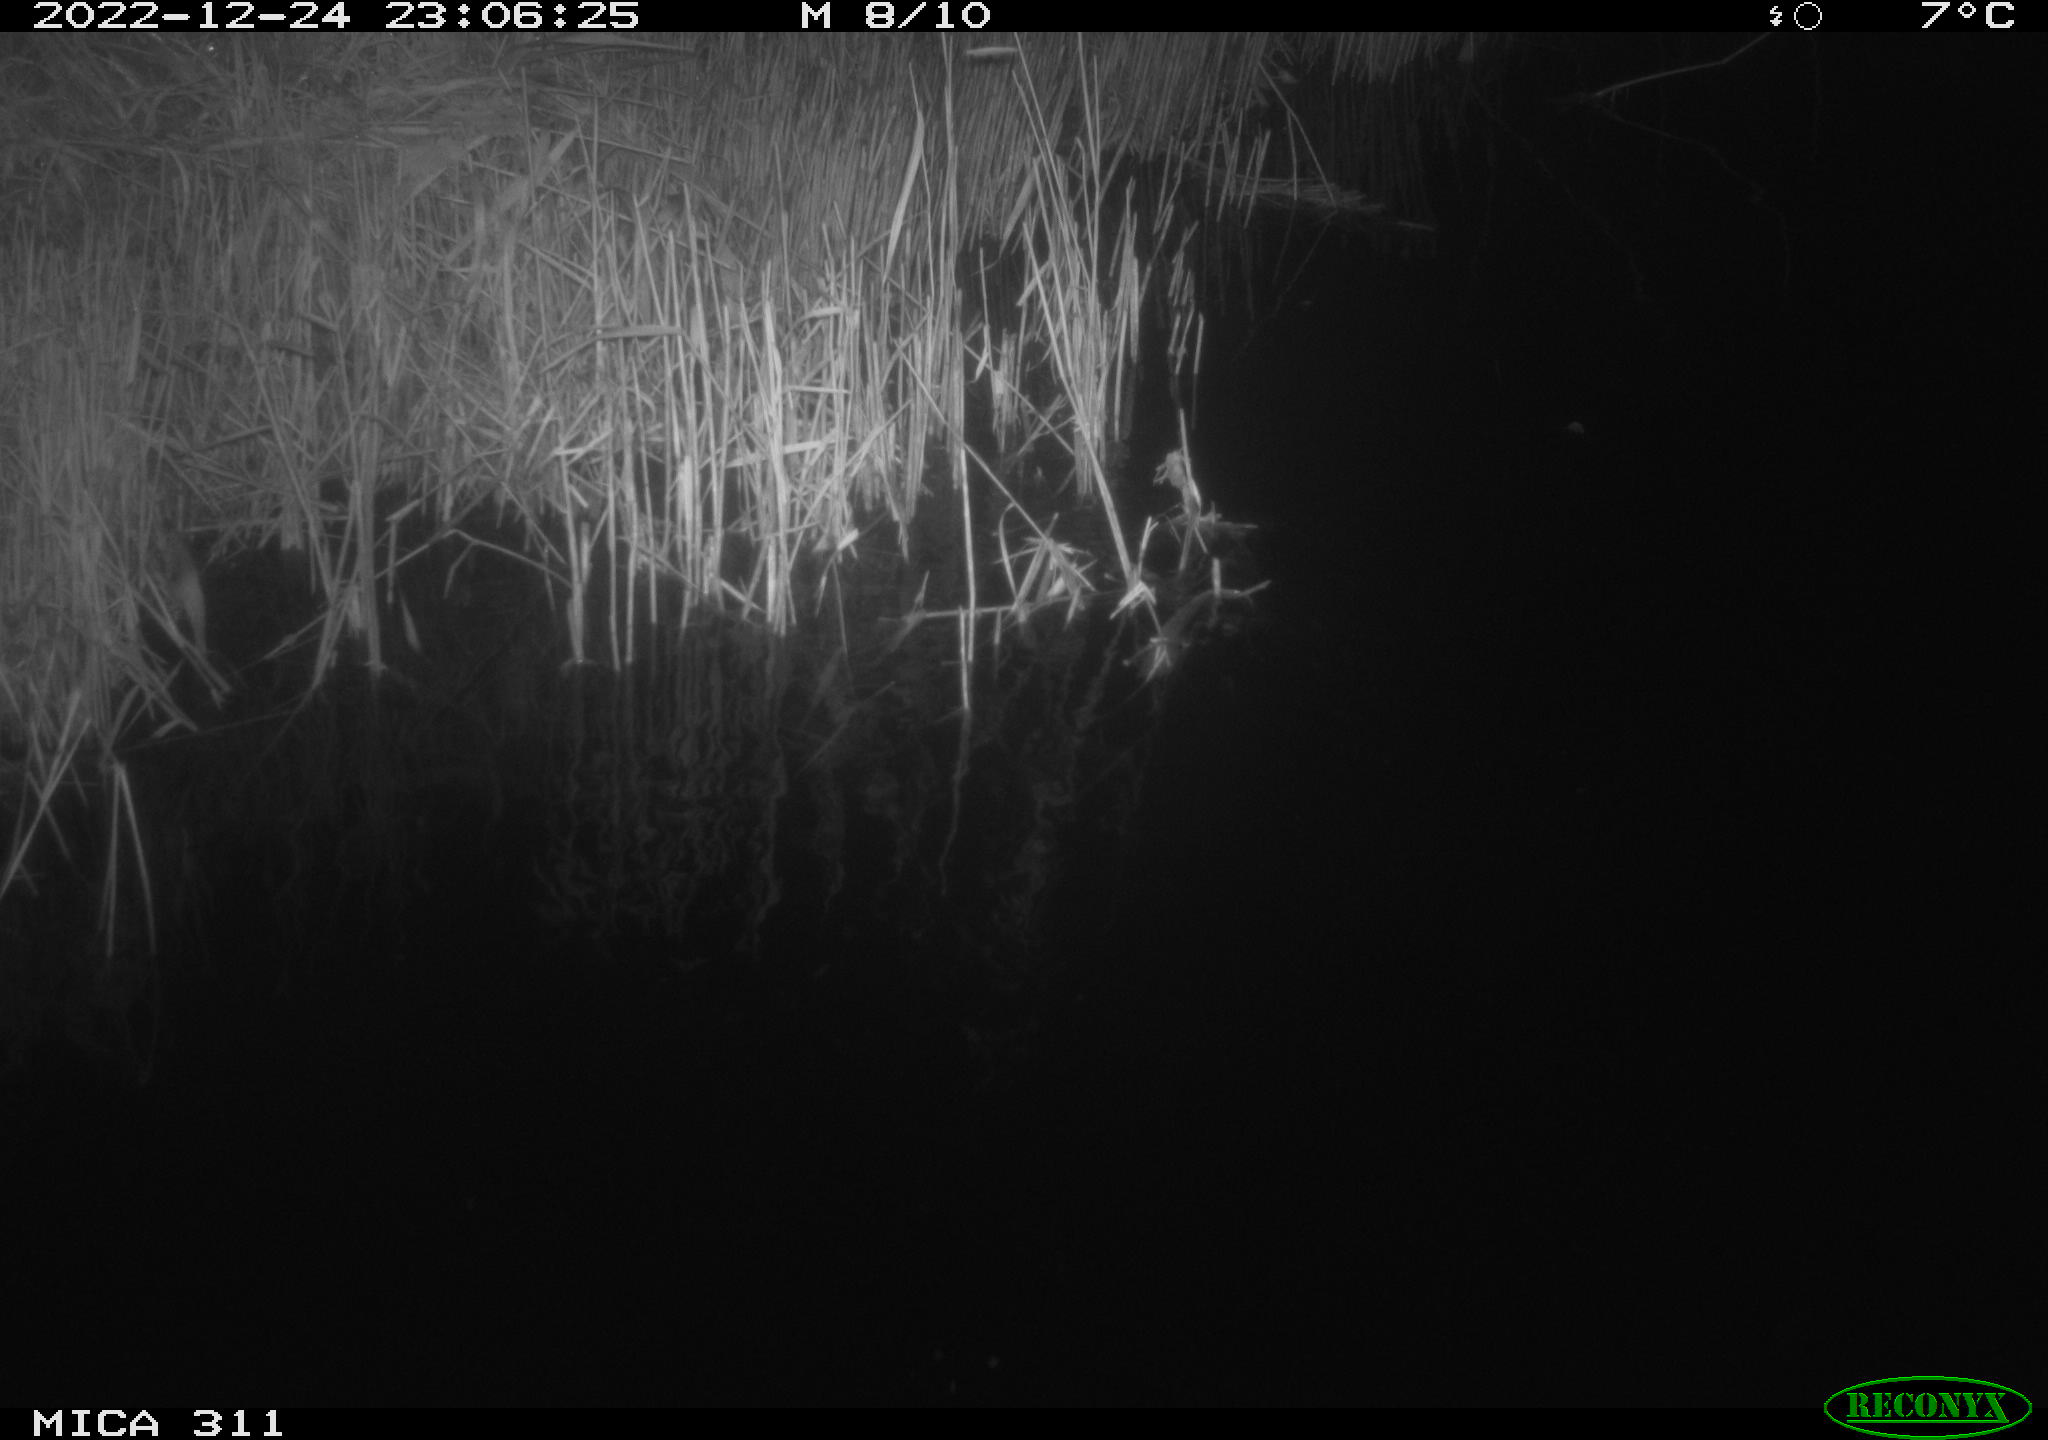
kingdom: Animalia
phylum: Chordata
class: Aves
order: Gruiformes
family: Rallidae
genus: Gallinula
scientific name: Gallinula chloropus
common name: Common moorhen
